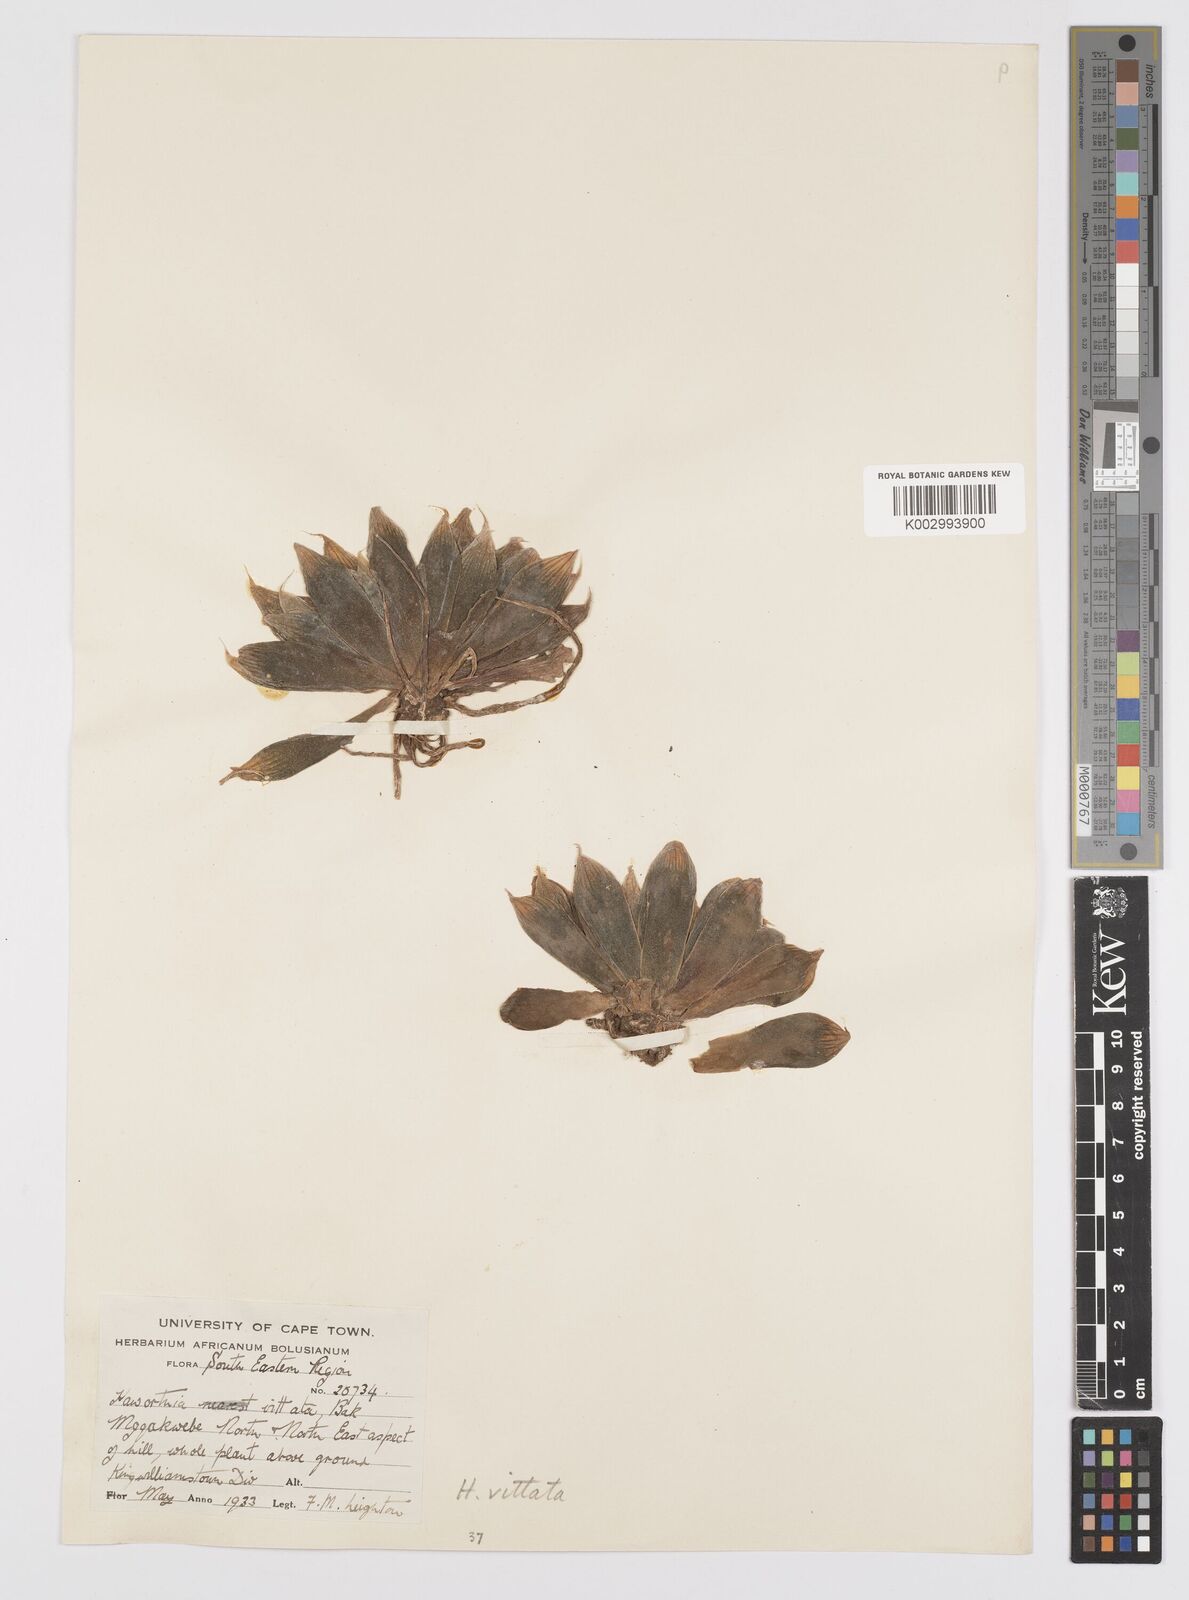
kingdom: Plantae
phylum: Tracheophyta
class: Liliopsida
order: Asparagales
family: Asphodelaceae
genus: Haworthia
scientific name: Haworthia cooperi
